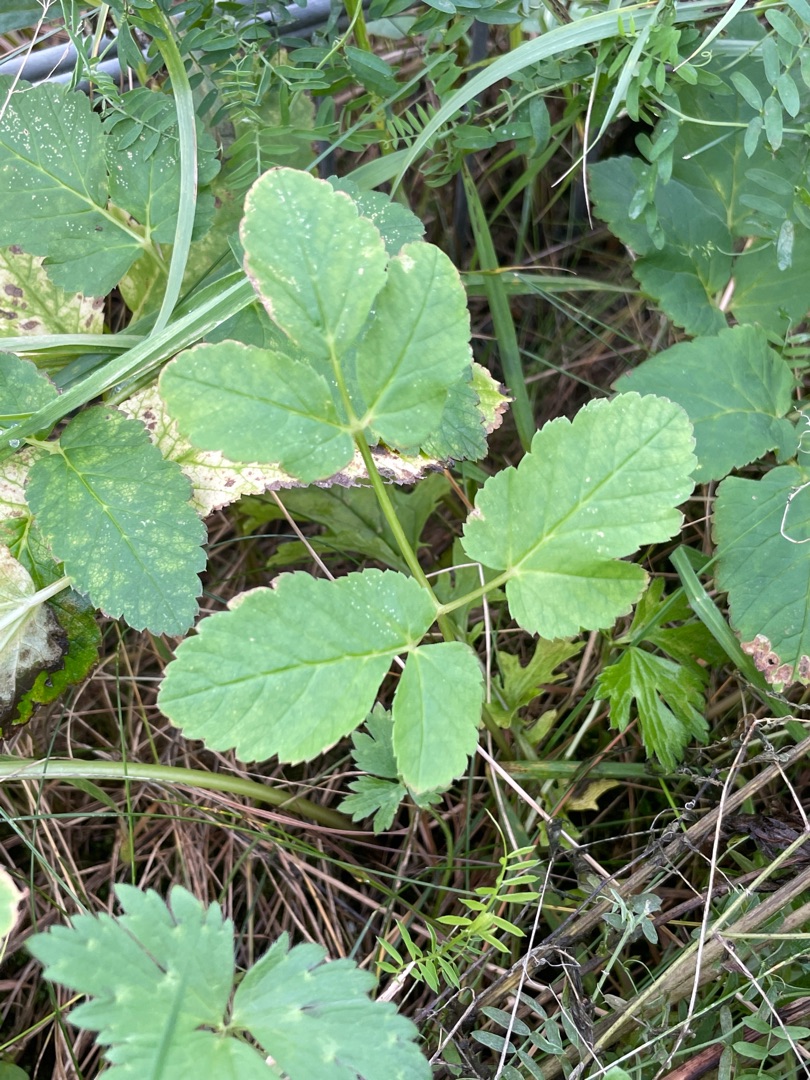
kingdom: Plantae
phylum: Tracheophyta
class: Magnoliopsida
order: Apiales
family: Apiaceae
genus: Aegopodium
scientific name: Aegopodium podagraria
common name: Skvalderkål
